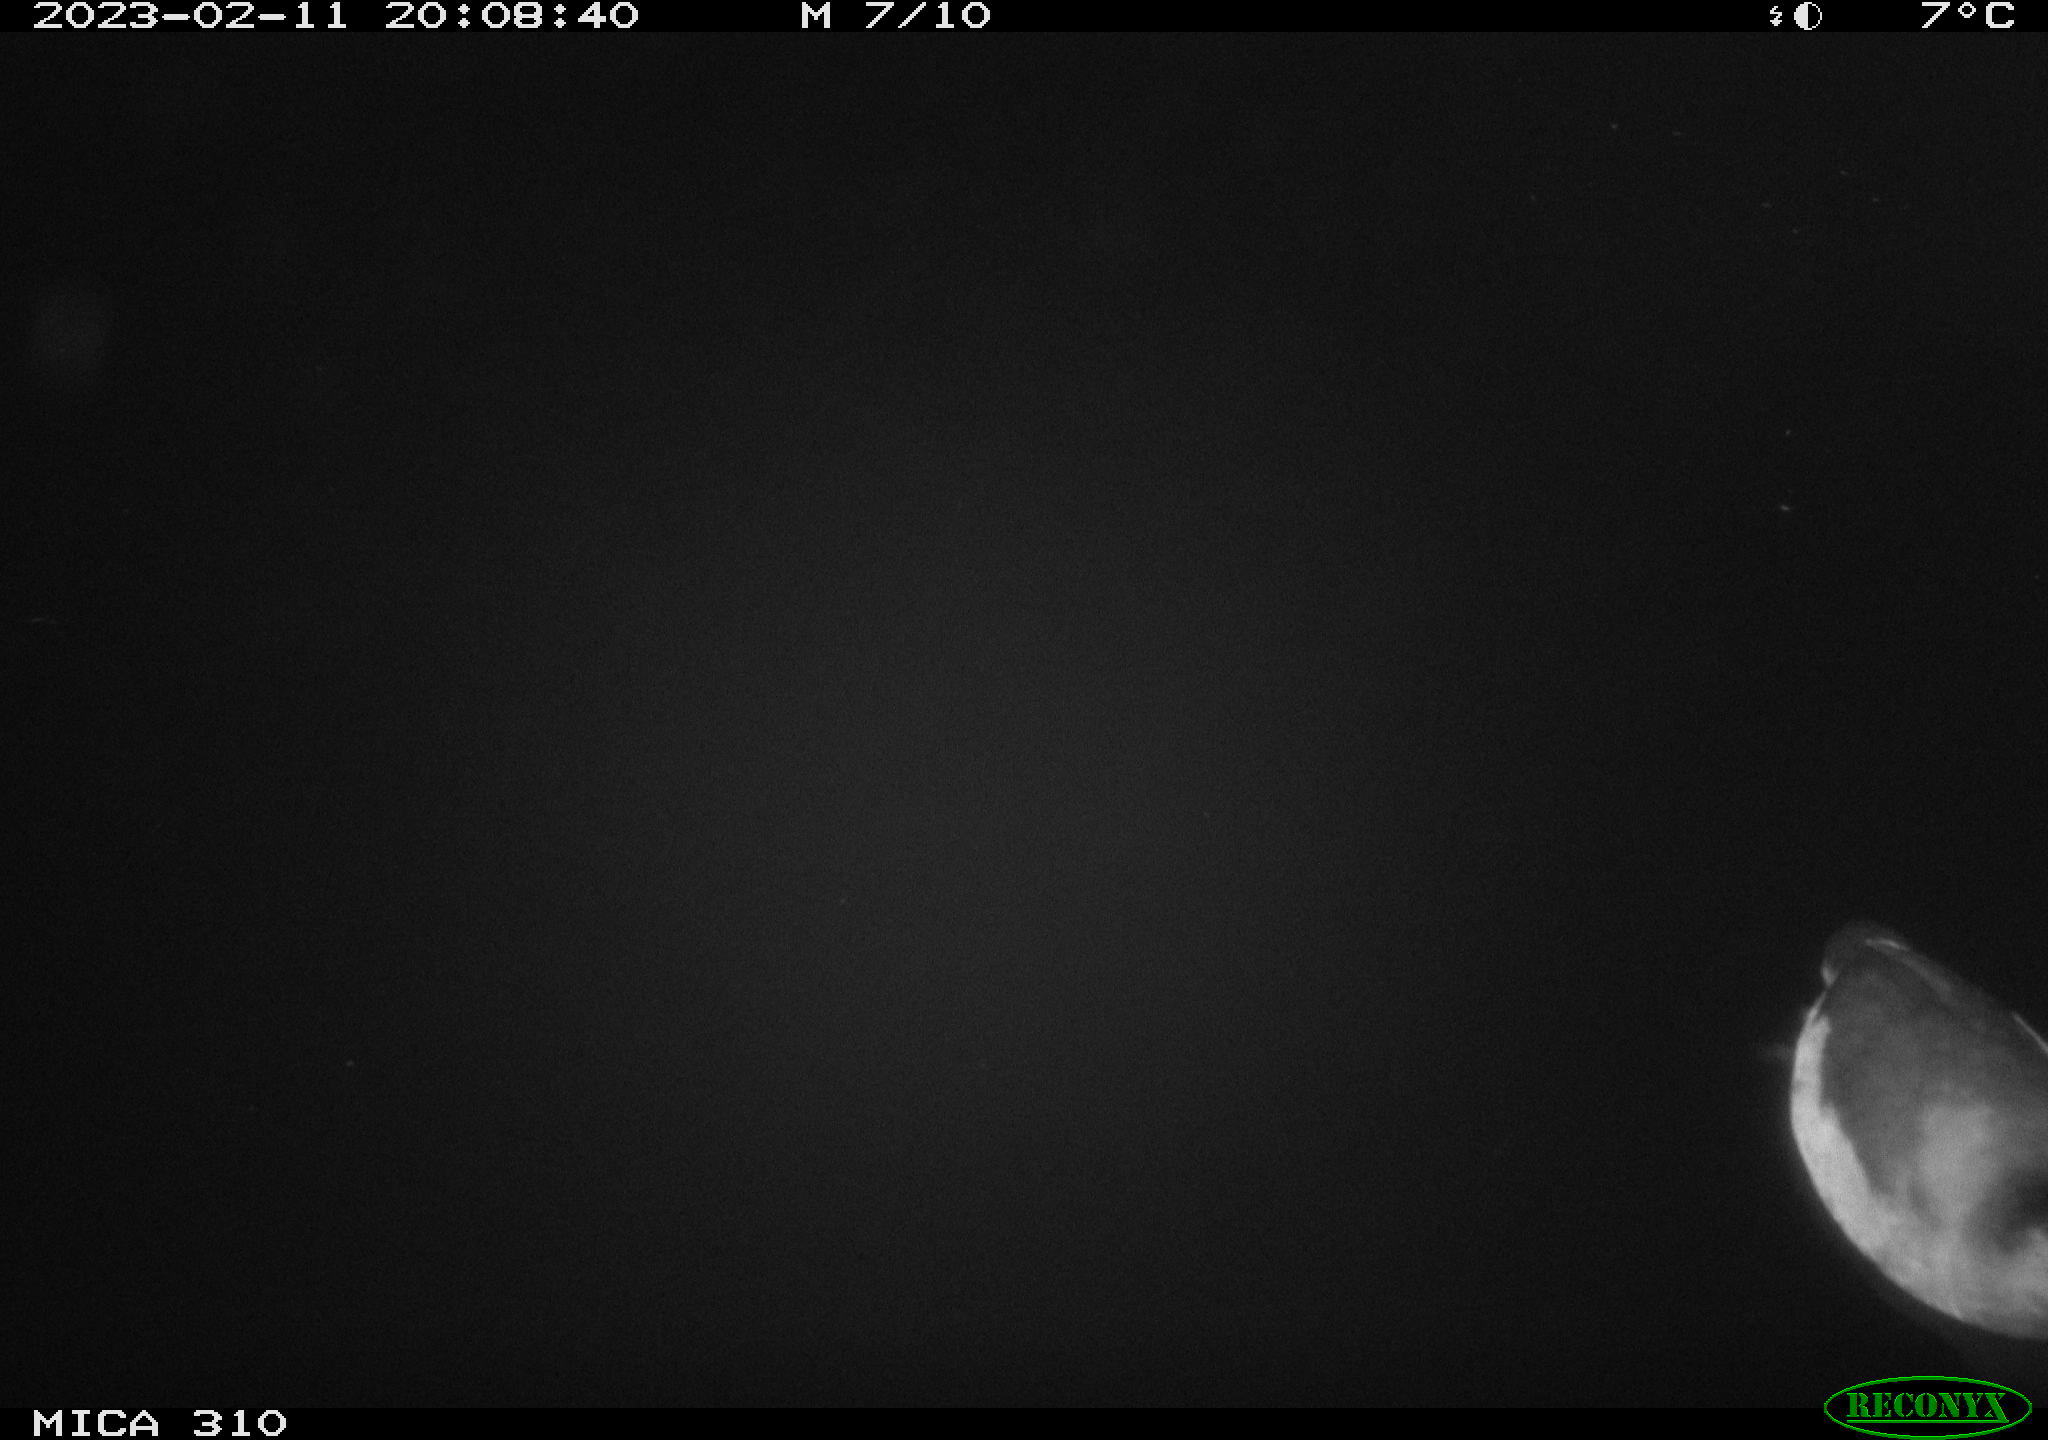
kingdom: Animalia
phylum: Chordata
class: Aves
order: Anseriformes
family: Anatidae
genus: Anas
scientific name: Anas
